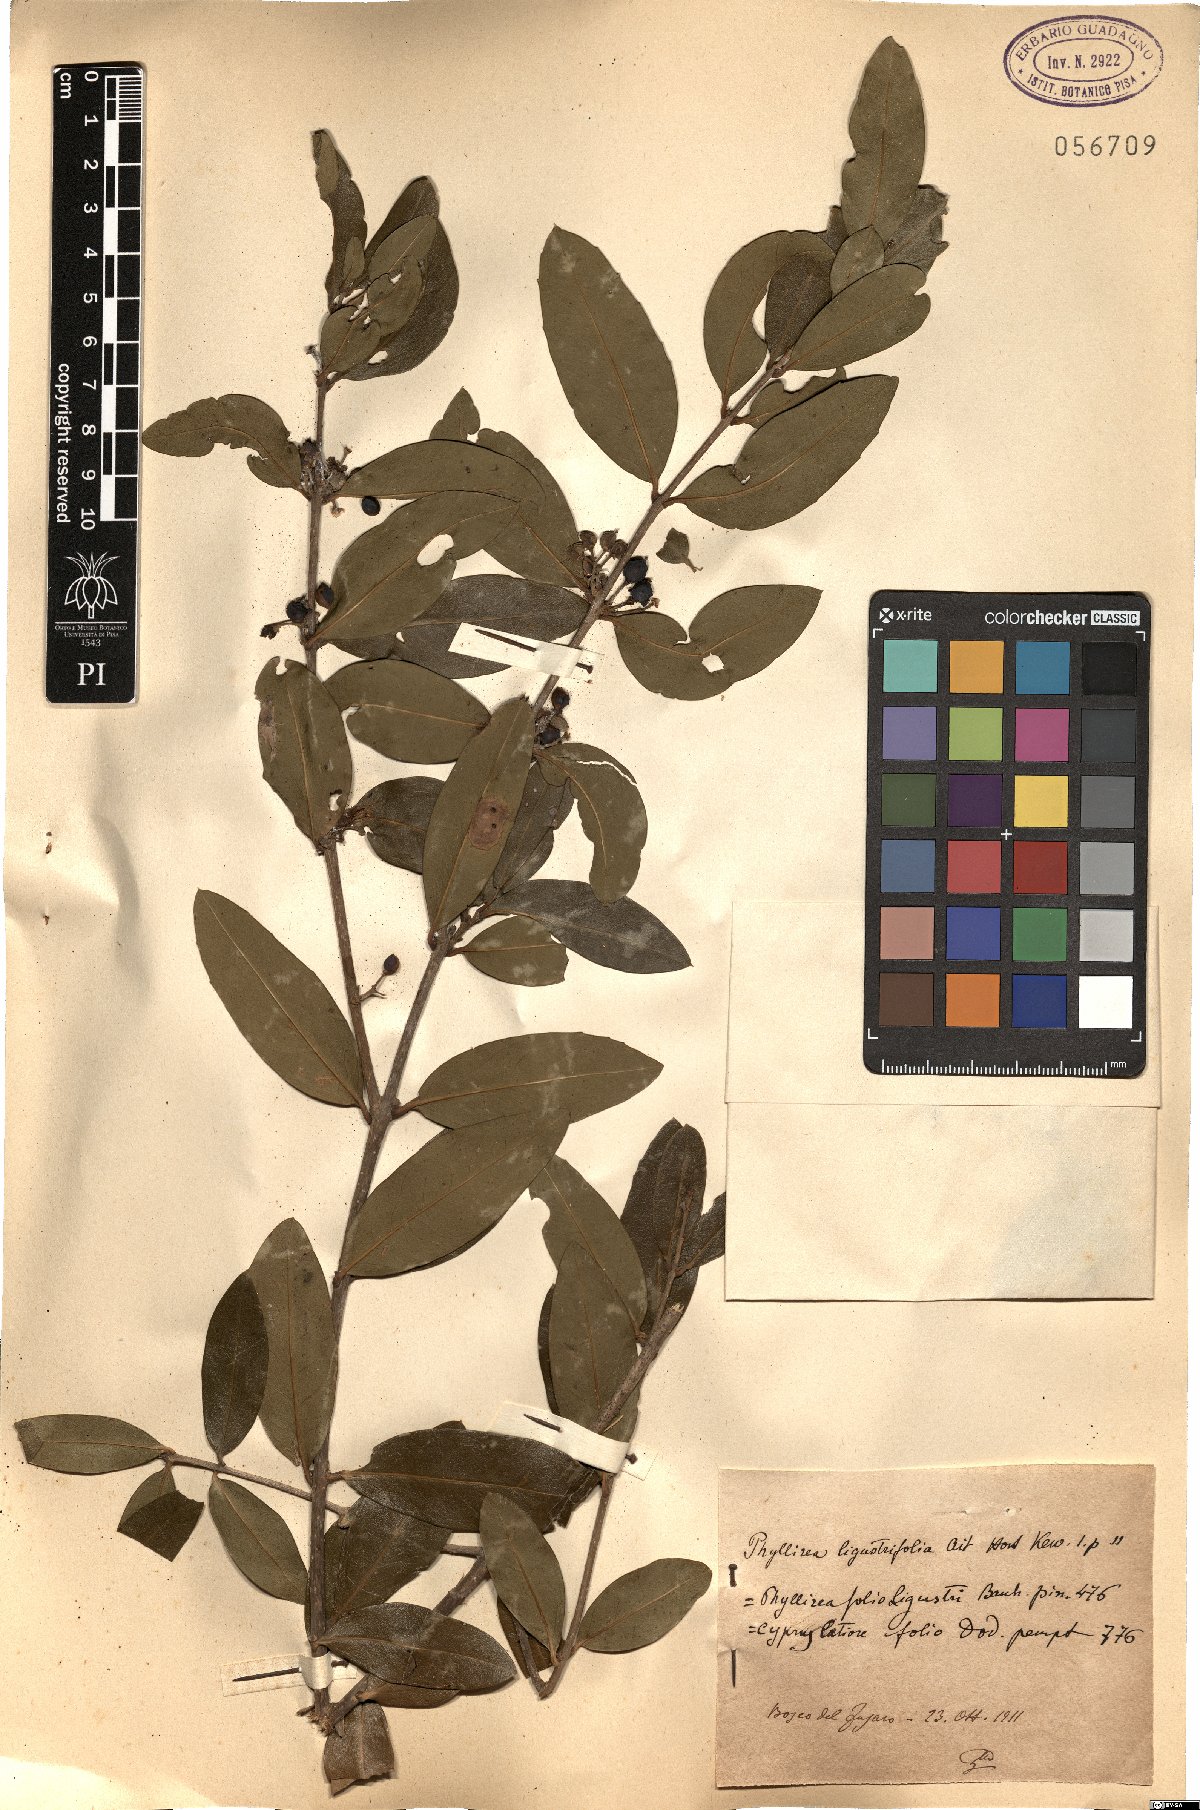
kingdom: Plantae
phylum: Tracheophyta
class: Magnoliopsida
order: Lamiales
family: Oleaceae
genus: Phillyrea
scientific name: Phillyrea latifolia
